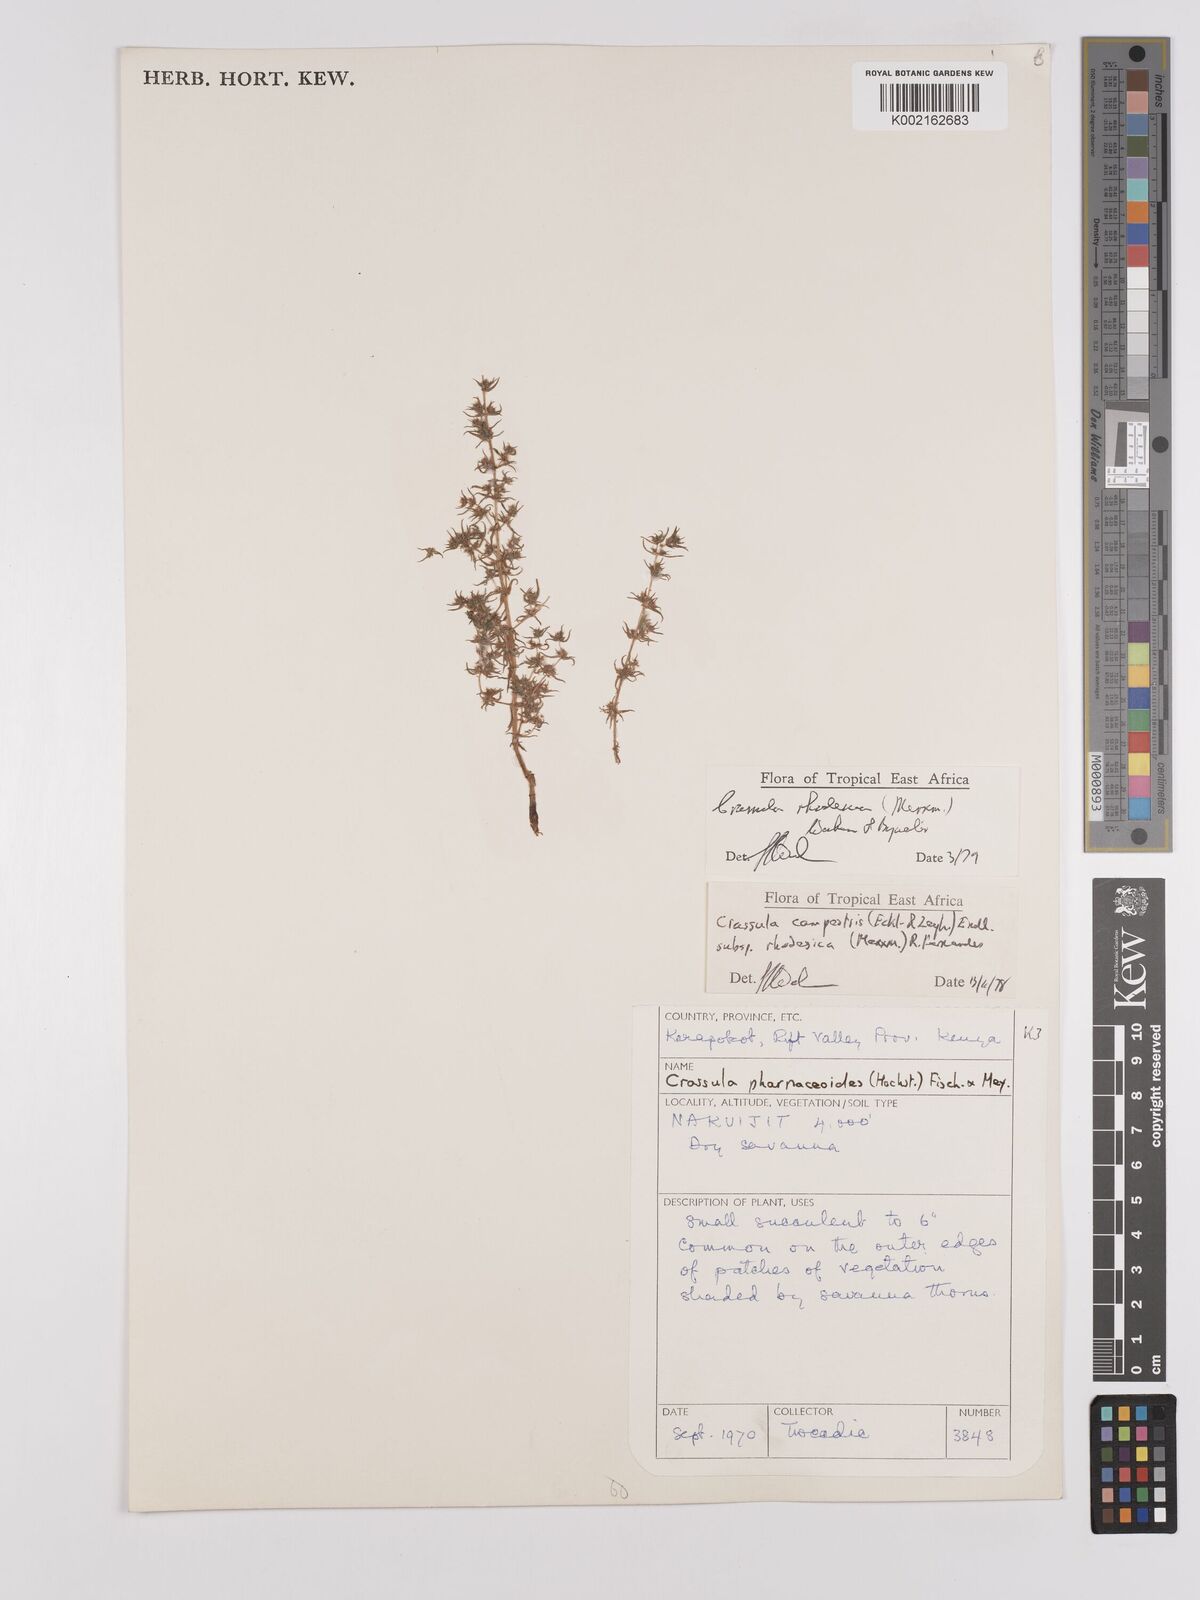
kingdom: Plantae
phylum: Tracheophyta
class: Magnoliopsida
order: Saxifragales
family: Crassulaceae
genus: Crassula
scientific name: Crassula rhodesica
